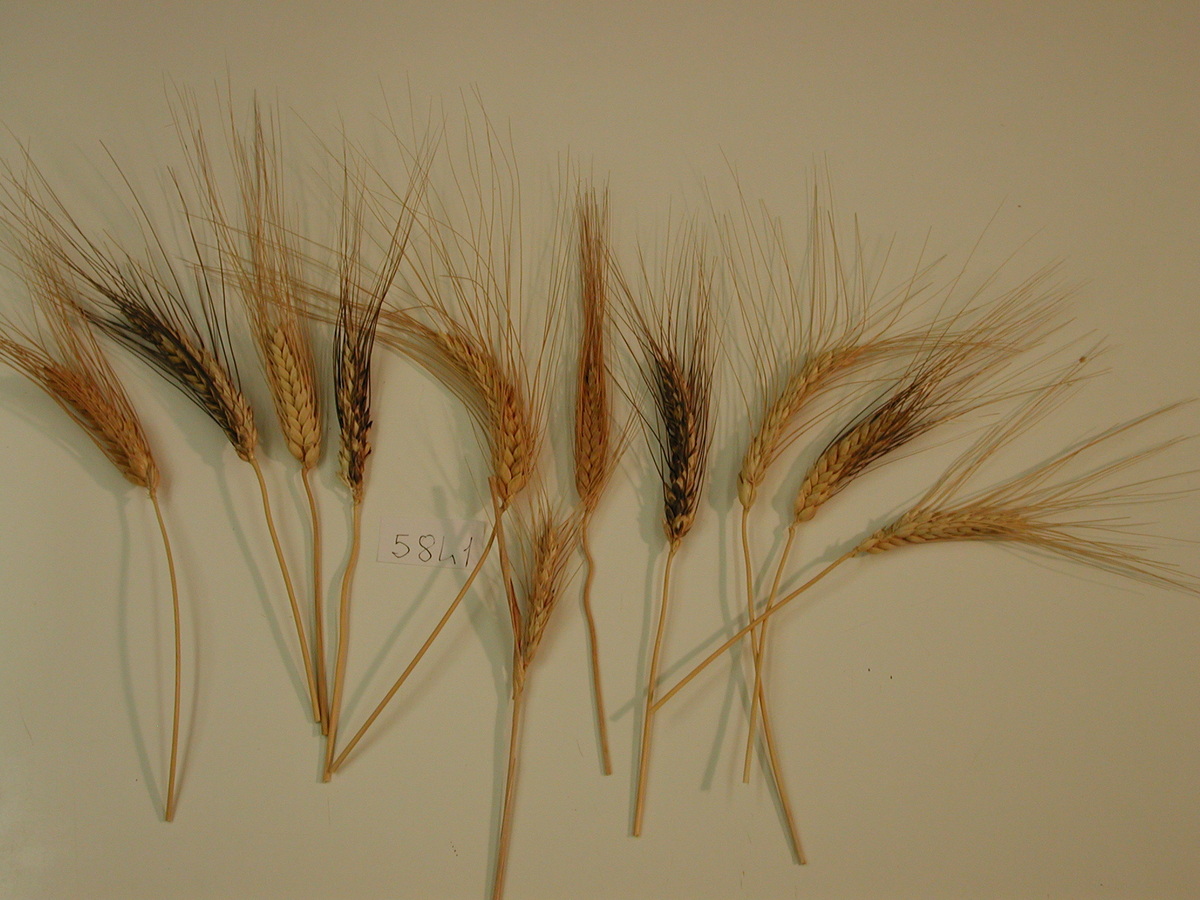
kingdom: Plantae
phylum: Tracheophyta
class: Liliopsida
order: Poales
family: Poaceae
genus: Triticum
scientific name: Triticum turgidum
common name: Wheat
